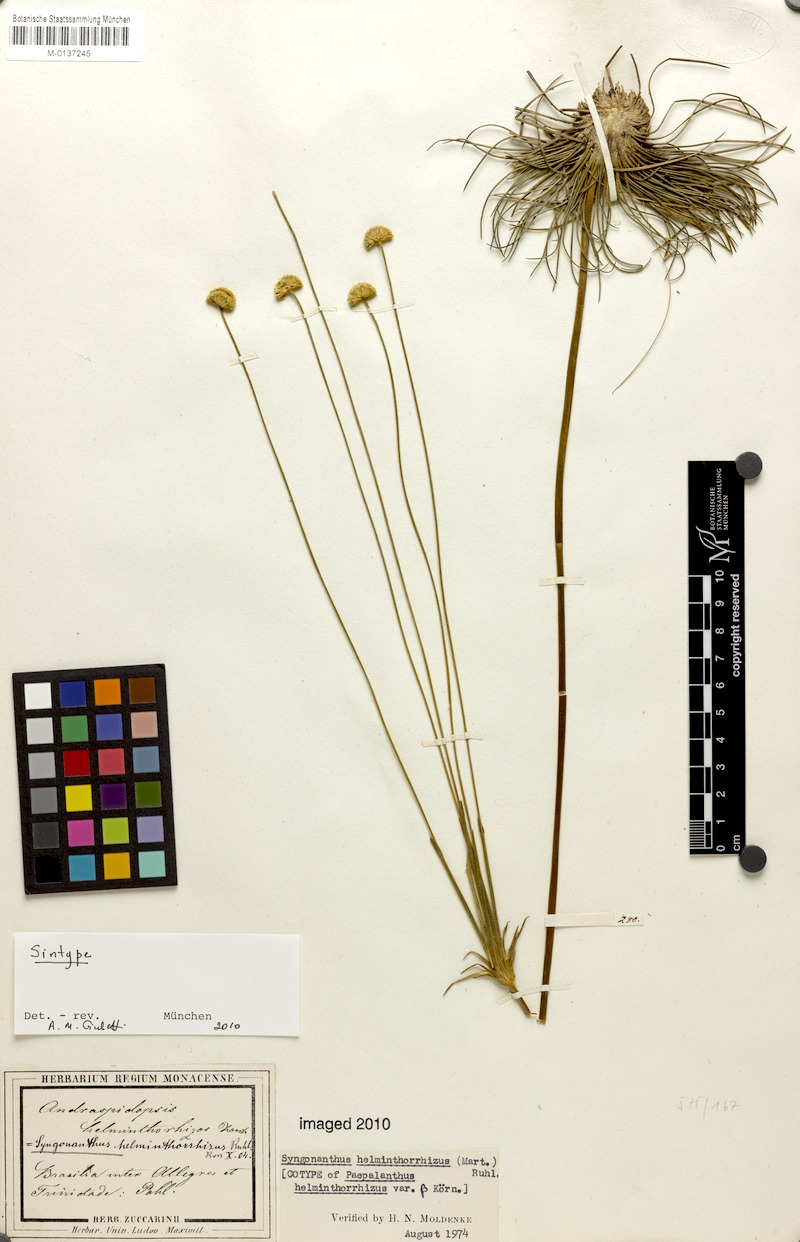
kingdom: Plantae
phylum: Tracheophyta
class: Liliopsida
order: Poales
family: Eriocaulaceae
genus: Syngonanthus
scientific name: Syngonanthus helminthorrhizus
